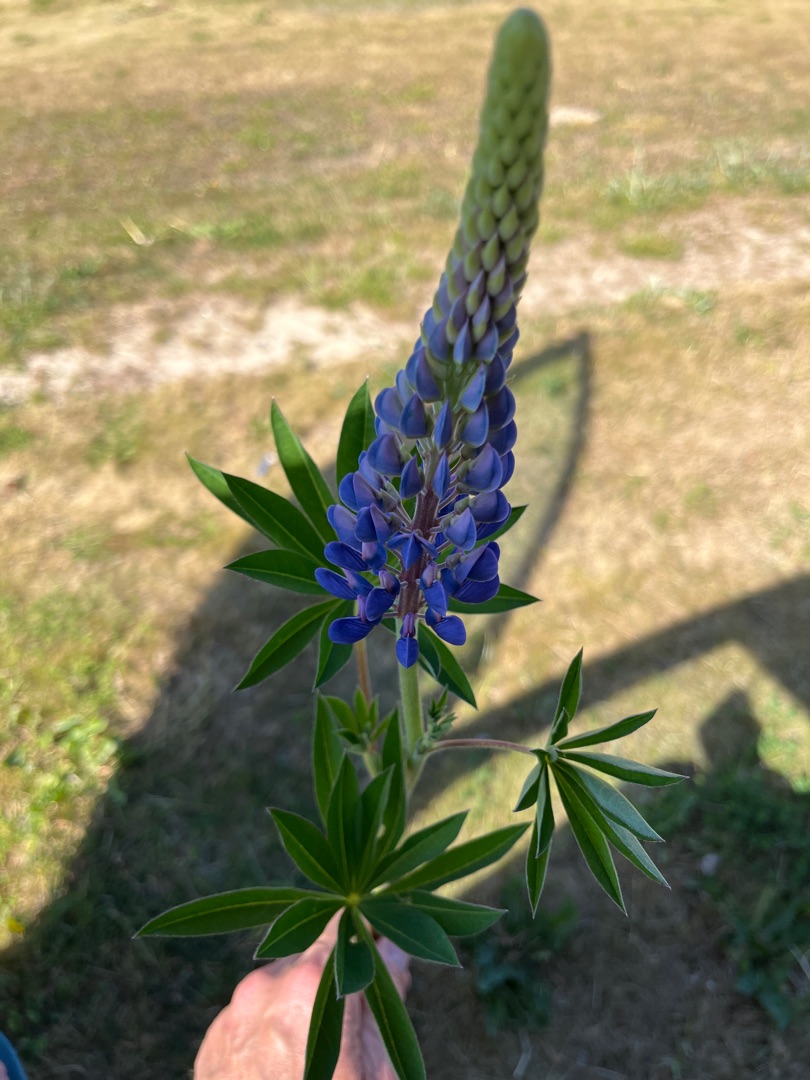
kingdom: Plantae
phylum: Tracheophyta
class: Magnoliopsida
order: Fabales
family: Fabaceae
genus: Lupinus
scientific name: Lupinus polyphyllus
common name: Mangebladet lupin
